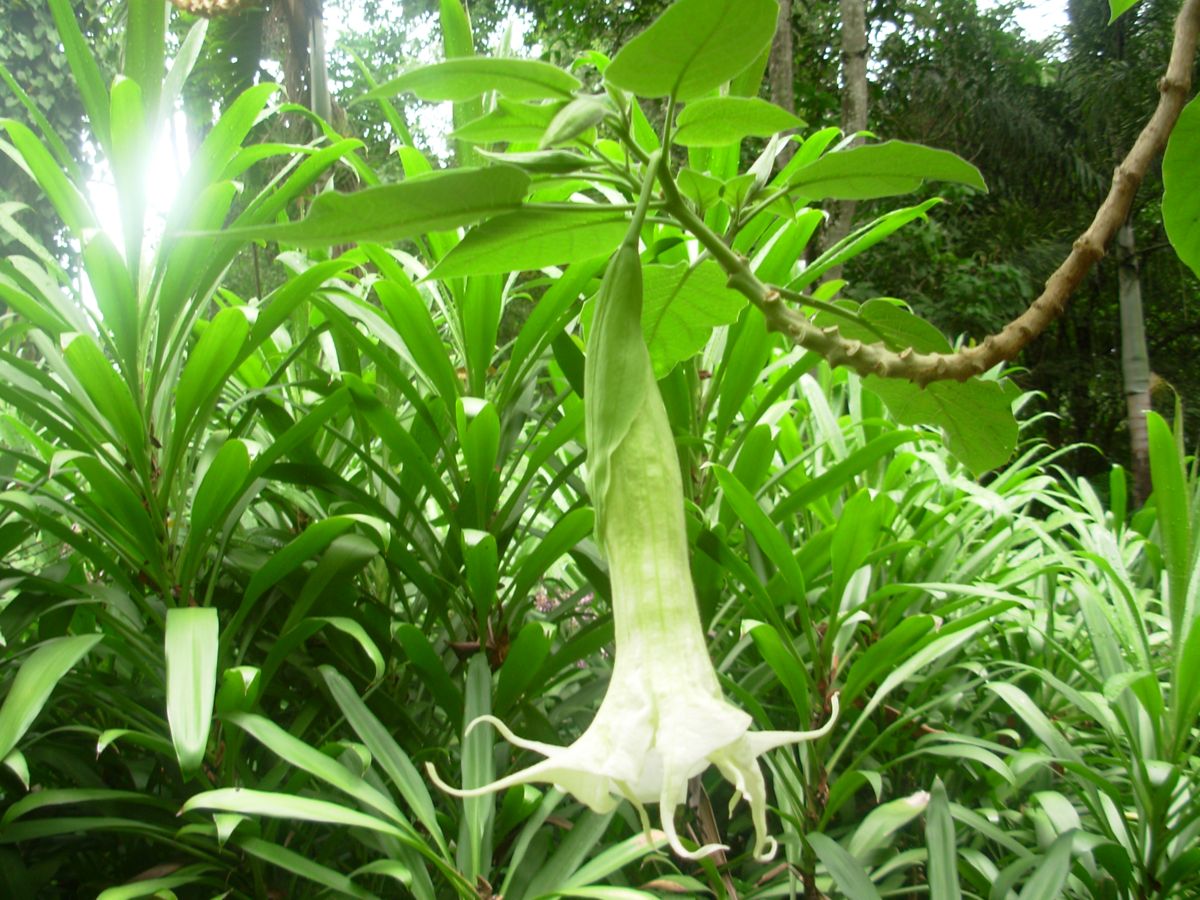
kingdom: Plantae
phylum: Tracheophyta
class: Magnoliopsida
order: Solanales
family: Solanaceae
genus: Brugmansia
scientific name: Brugmansia candida
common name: Angel's-trumpet
